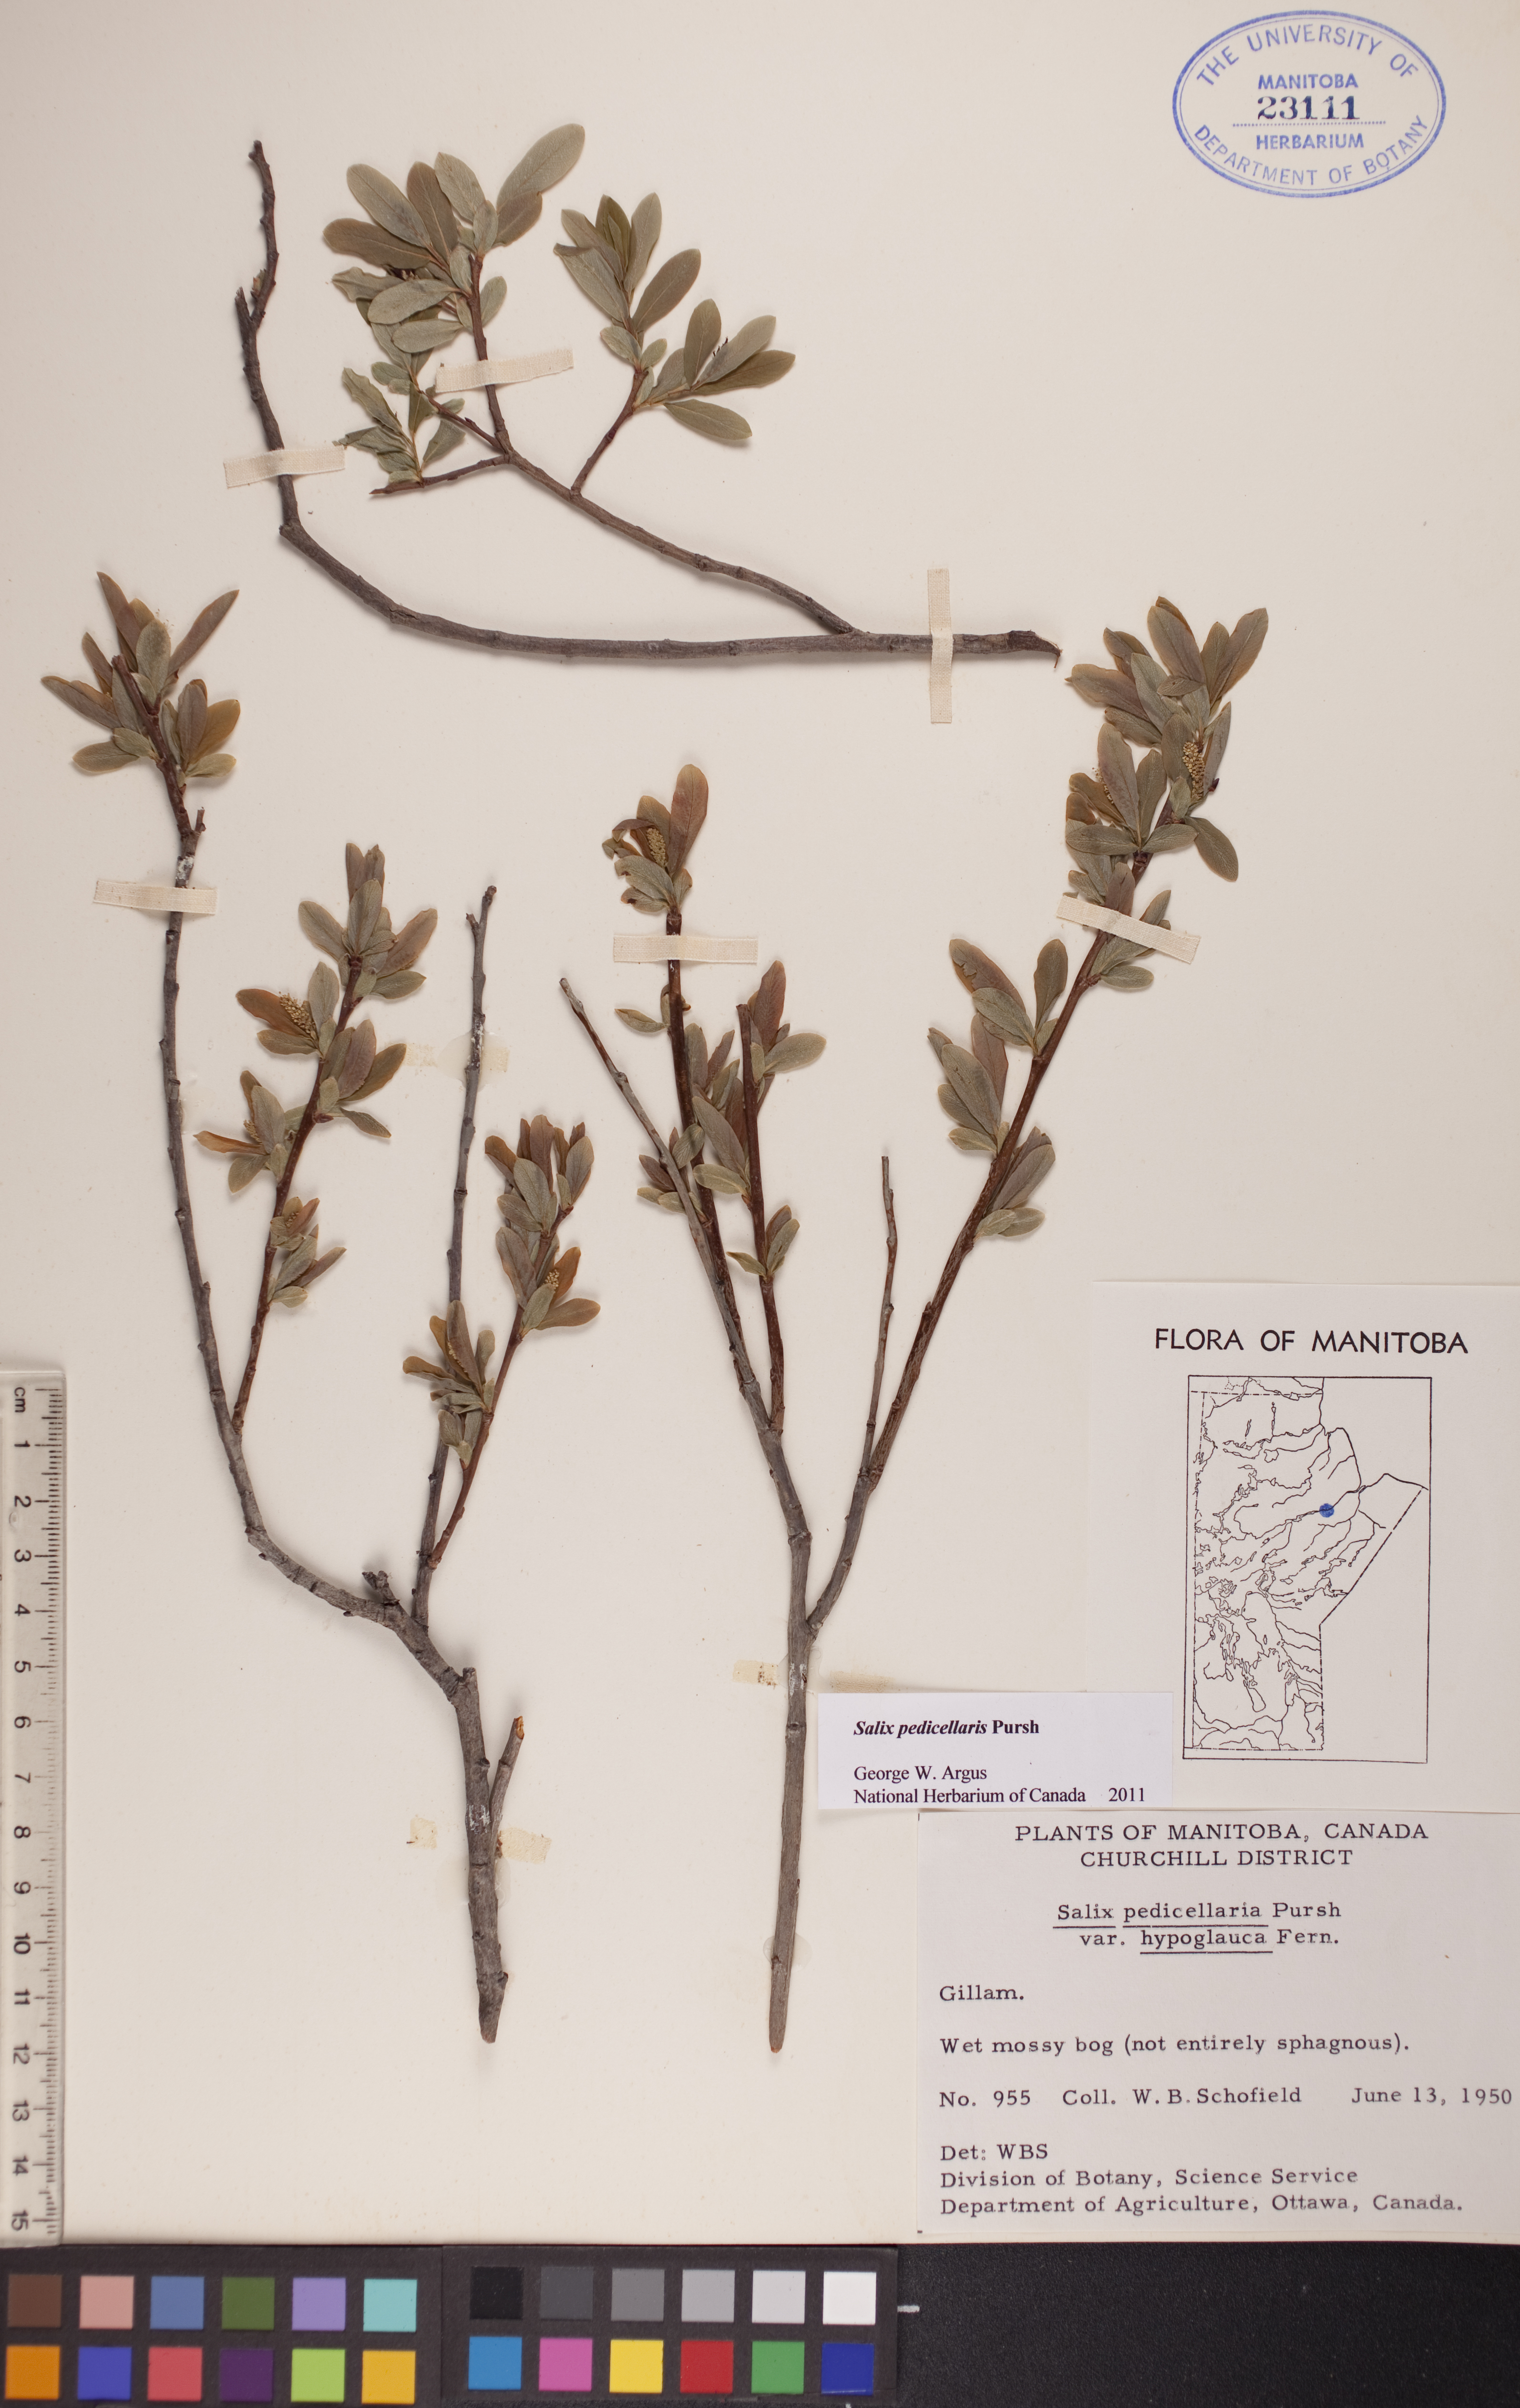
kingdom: Plantae
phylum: Tracheophyta
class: Magnoliopsida
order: Malpighiales
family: Salicaceae
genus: Salix
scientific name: Salix pedicellaris
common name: Bog willow
